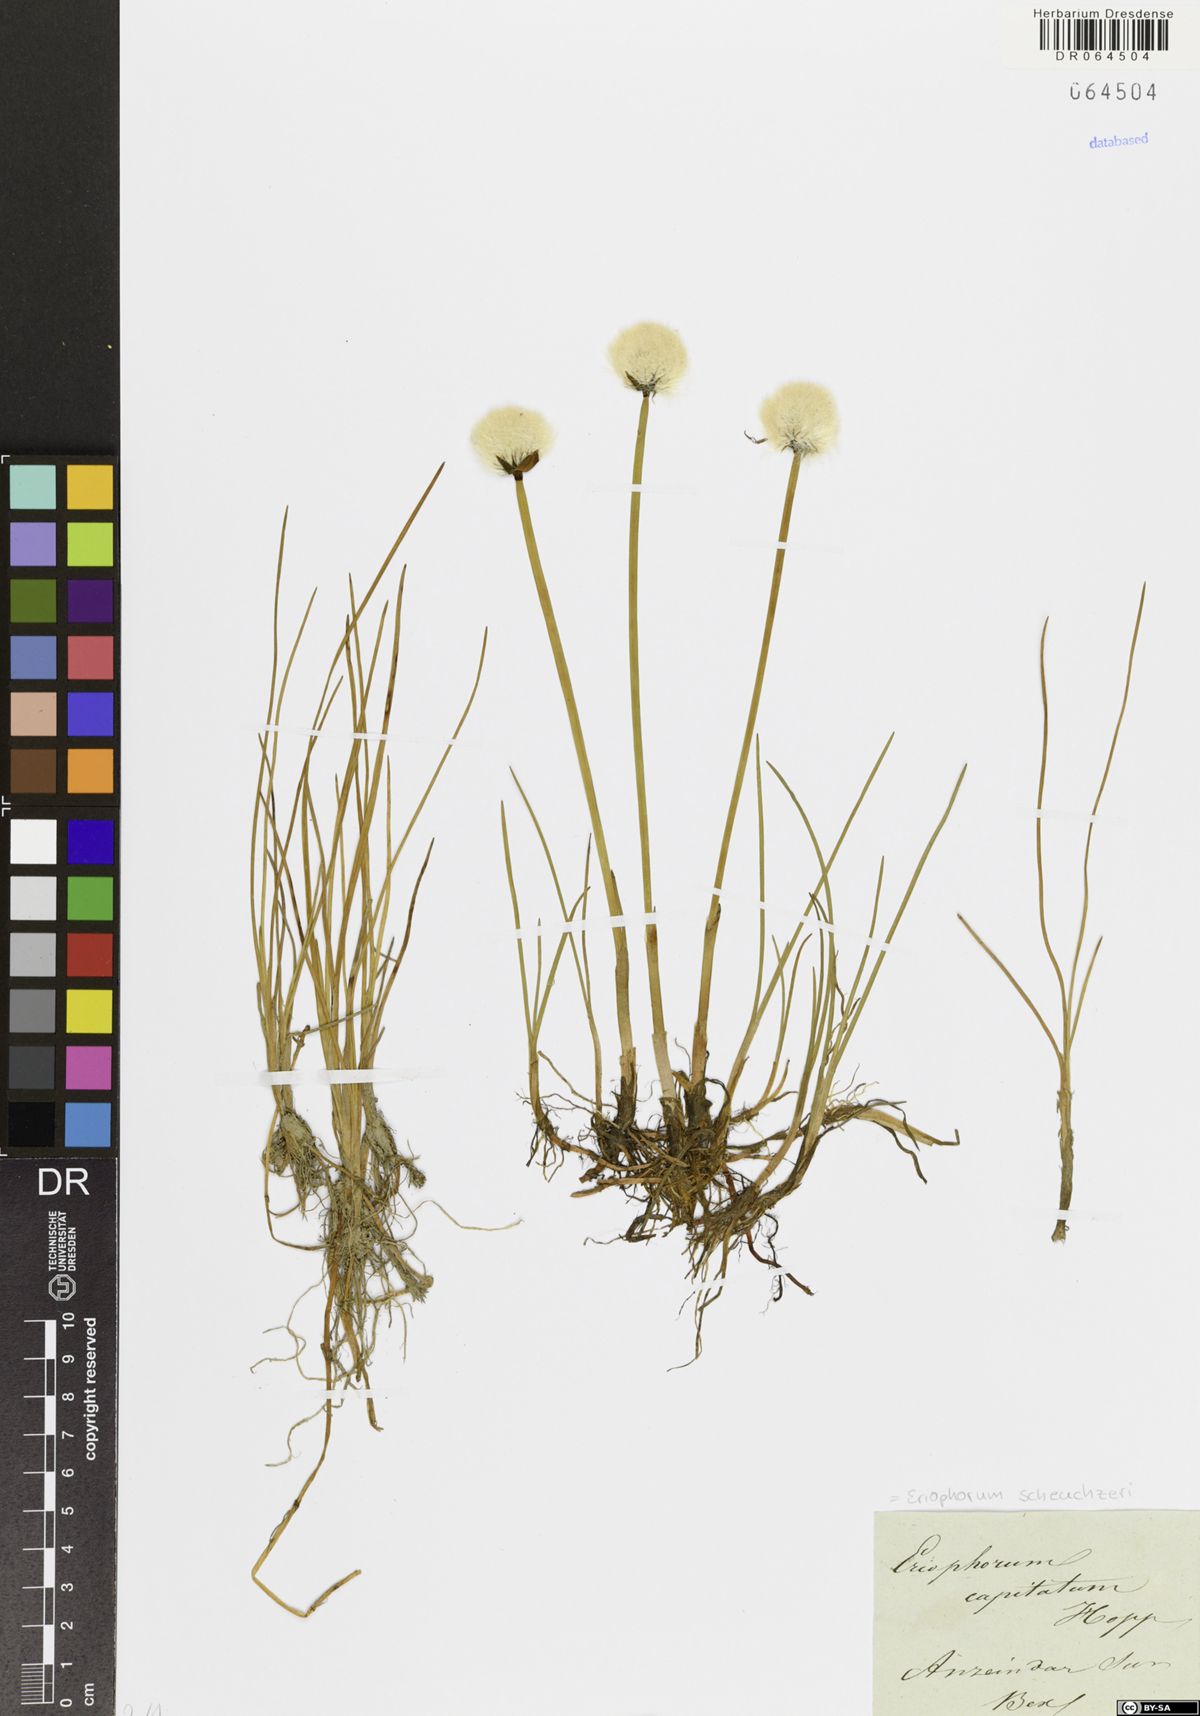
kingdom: Plantae
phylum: Tracheophyta
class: Liliopsida
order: Poales
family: Cyperaceae
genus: Eriophorum
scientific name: Eriophorum scheuchzeri
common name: Scheuchzer's cottongrass
